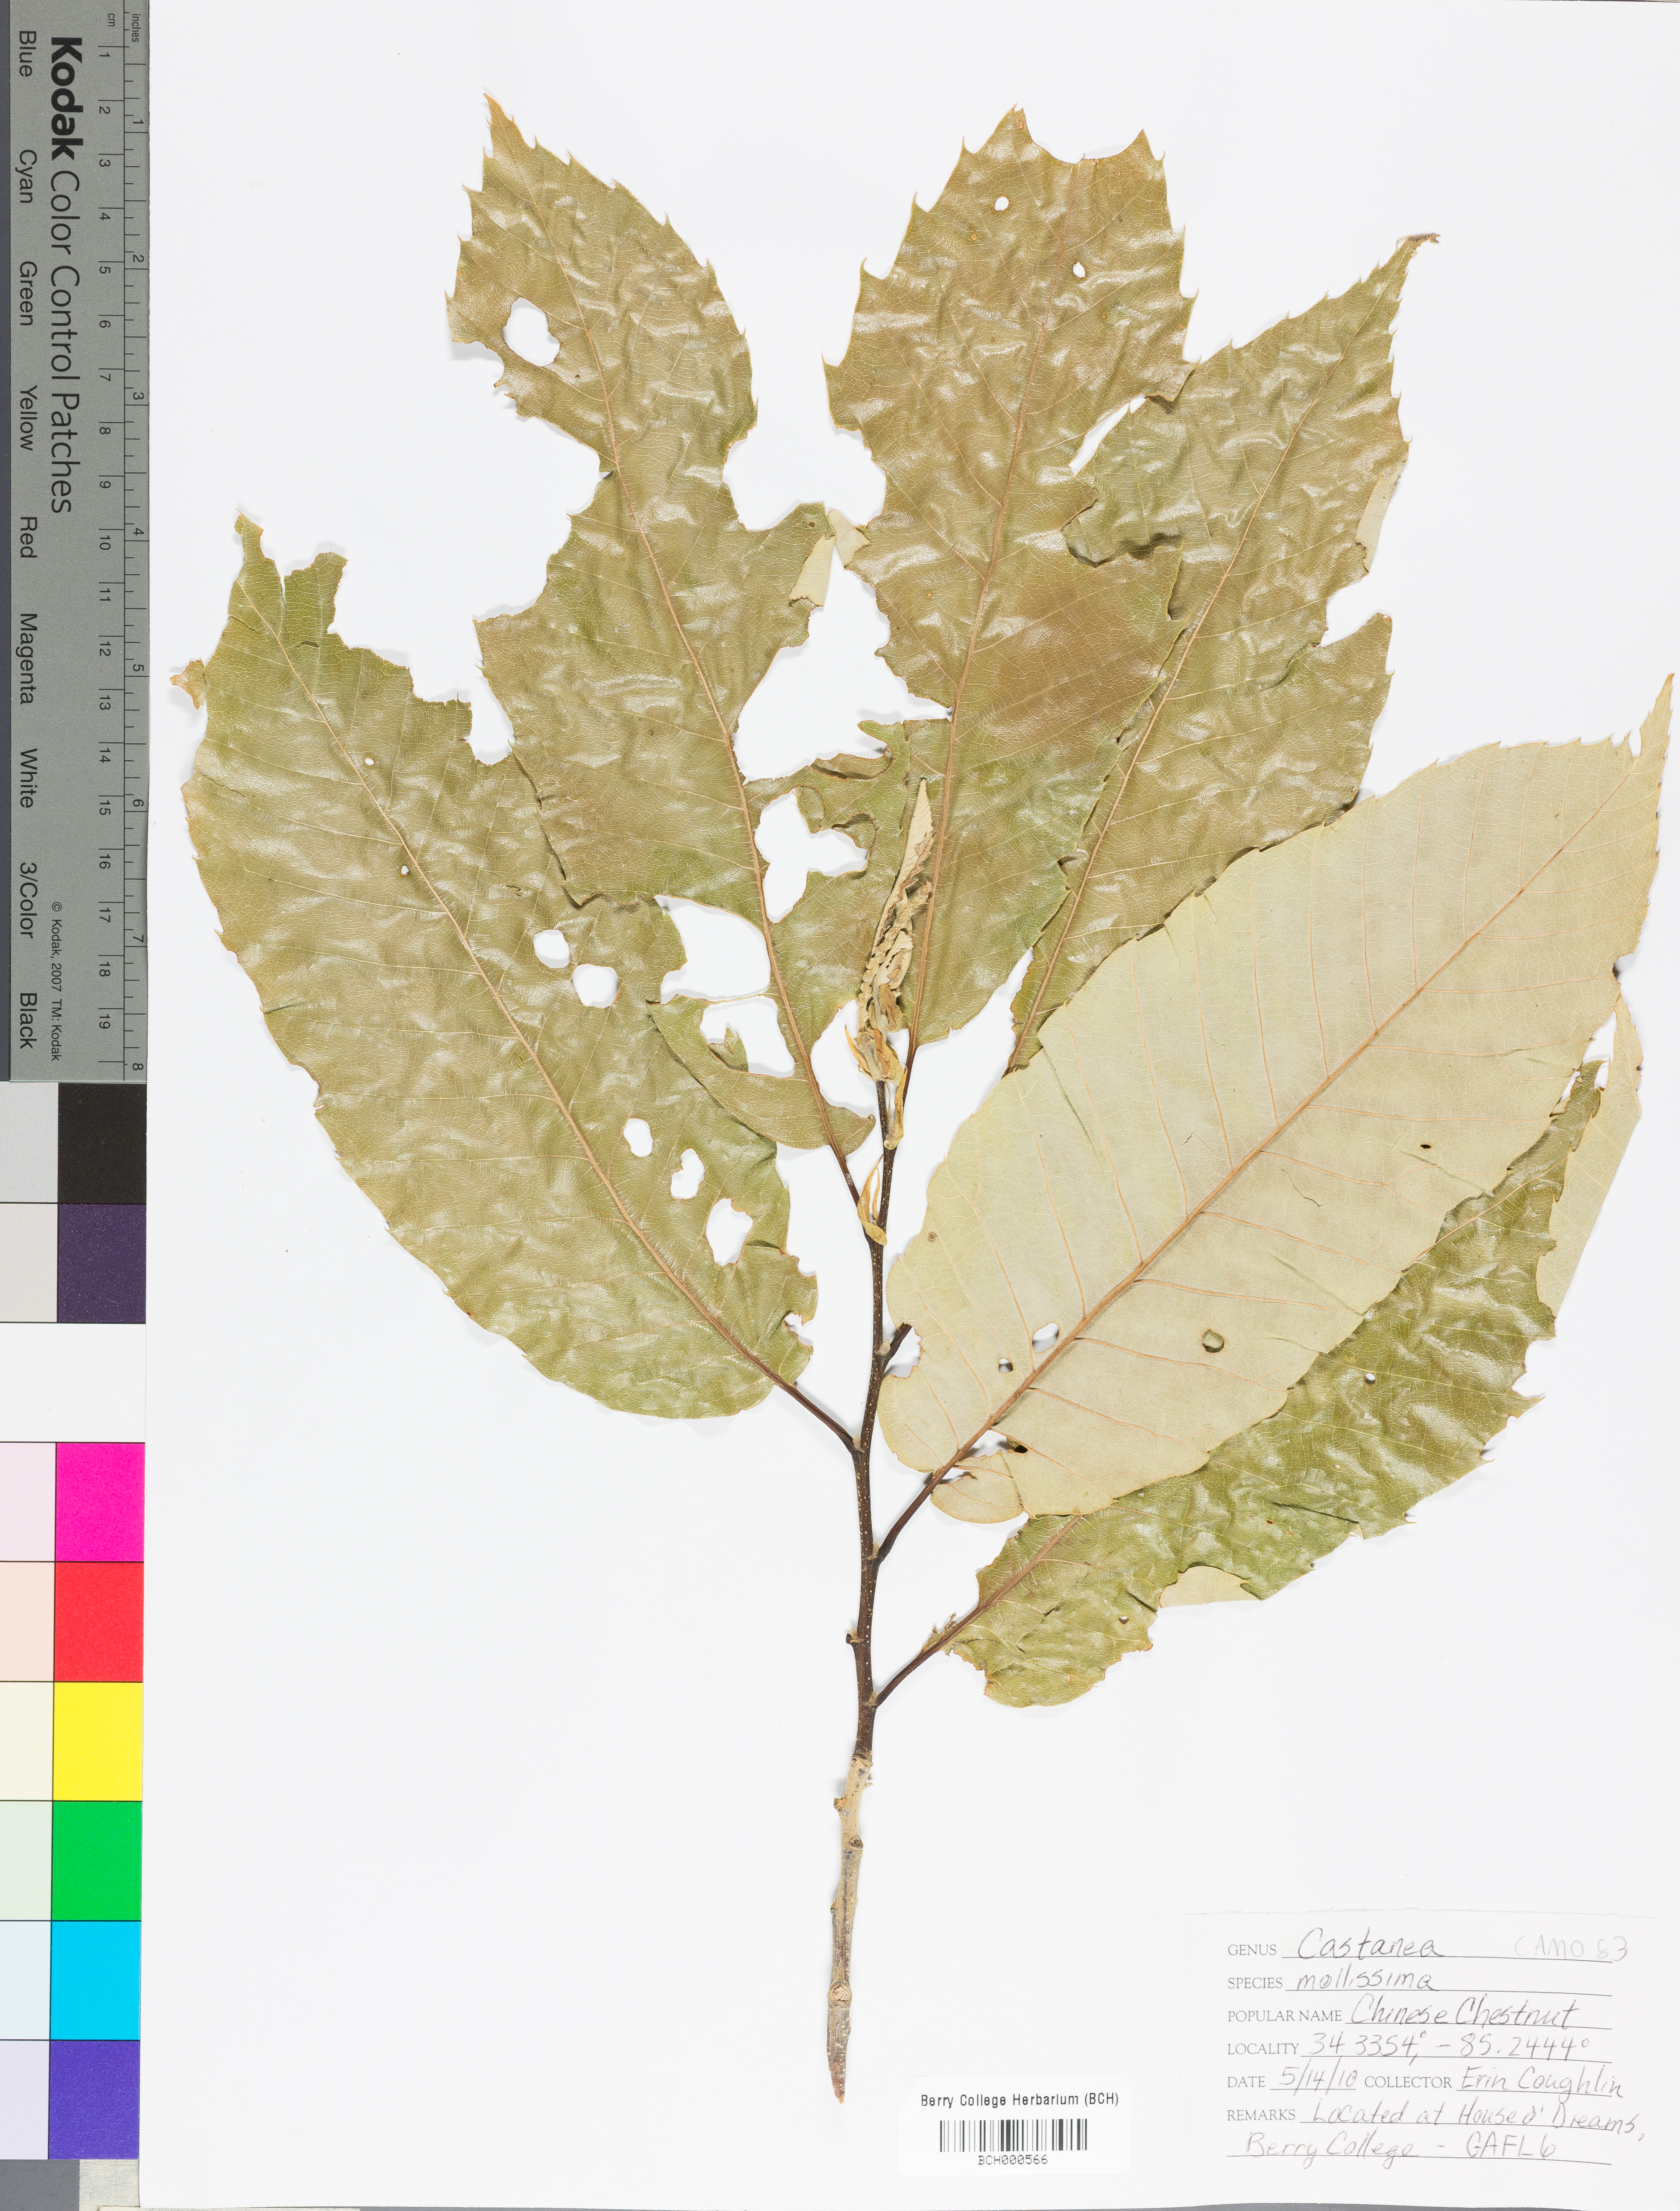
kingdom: Plantae
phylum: Tracheophyta
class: Magnoliopsida
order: Fagales
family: Fagaceae
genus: Castanea
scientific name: Castanea mollissima
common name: Chinese chestnut
